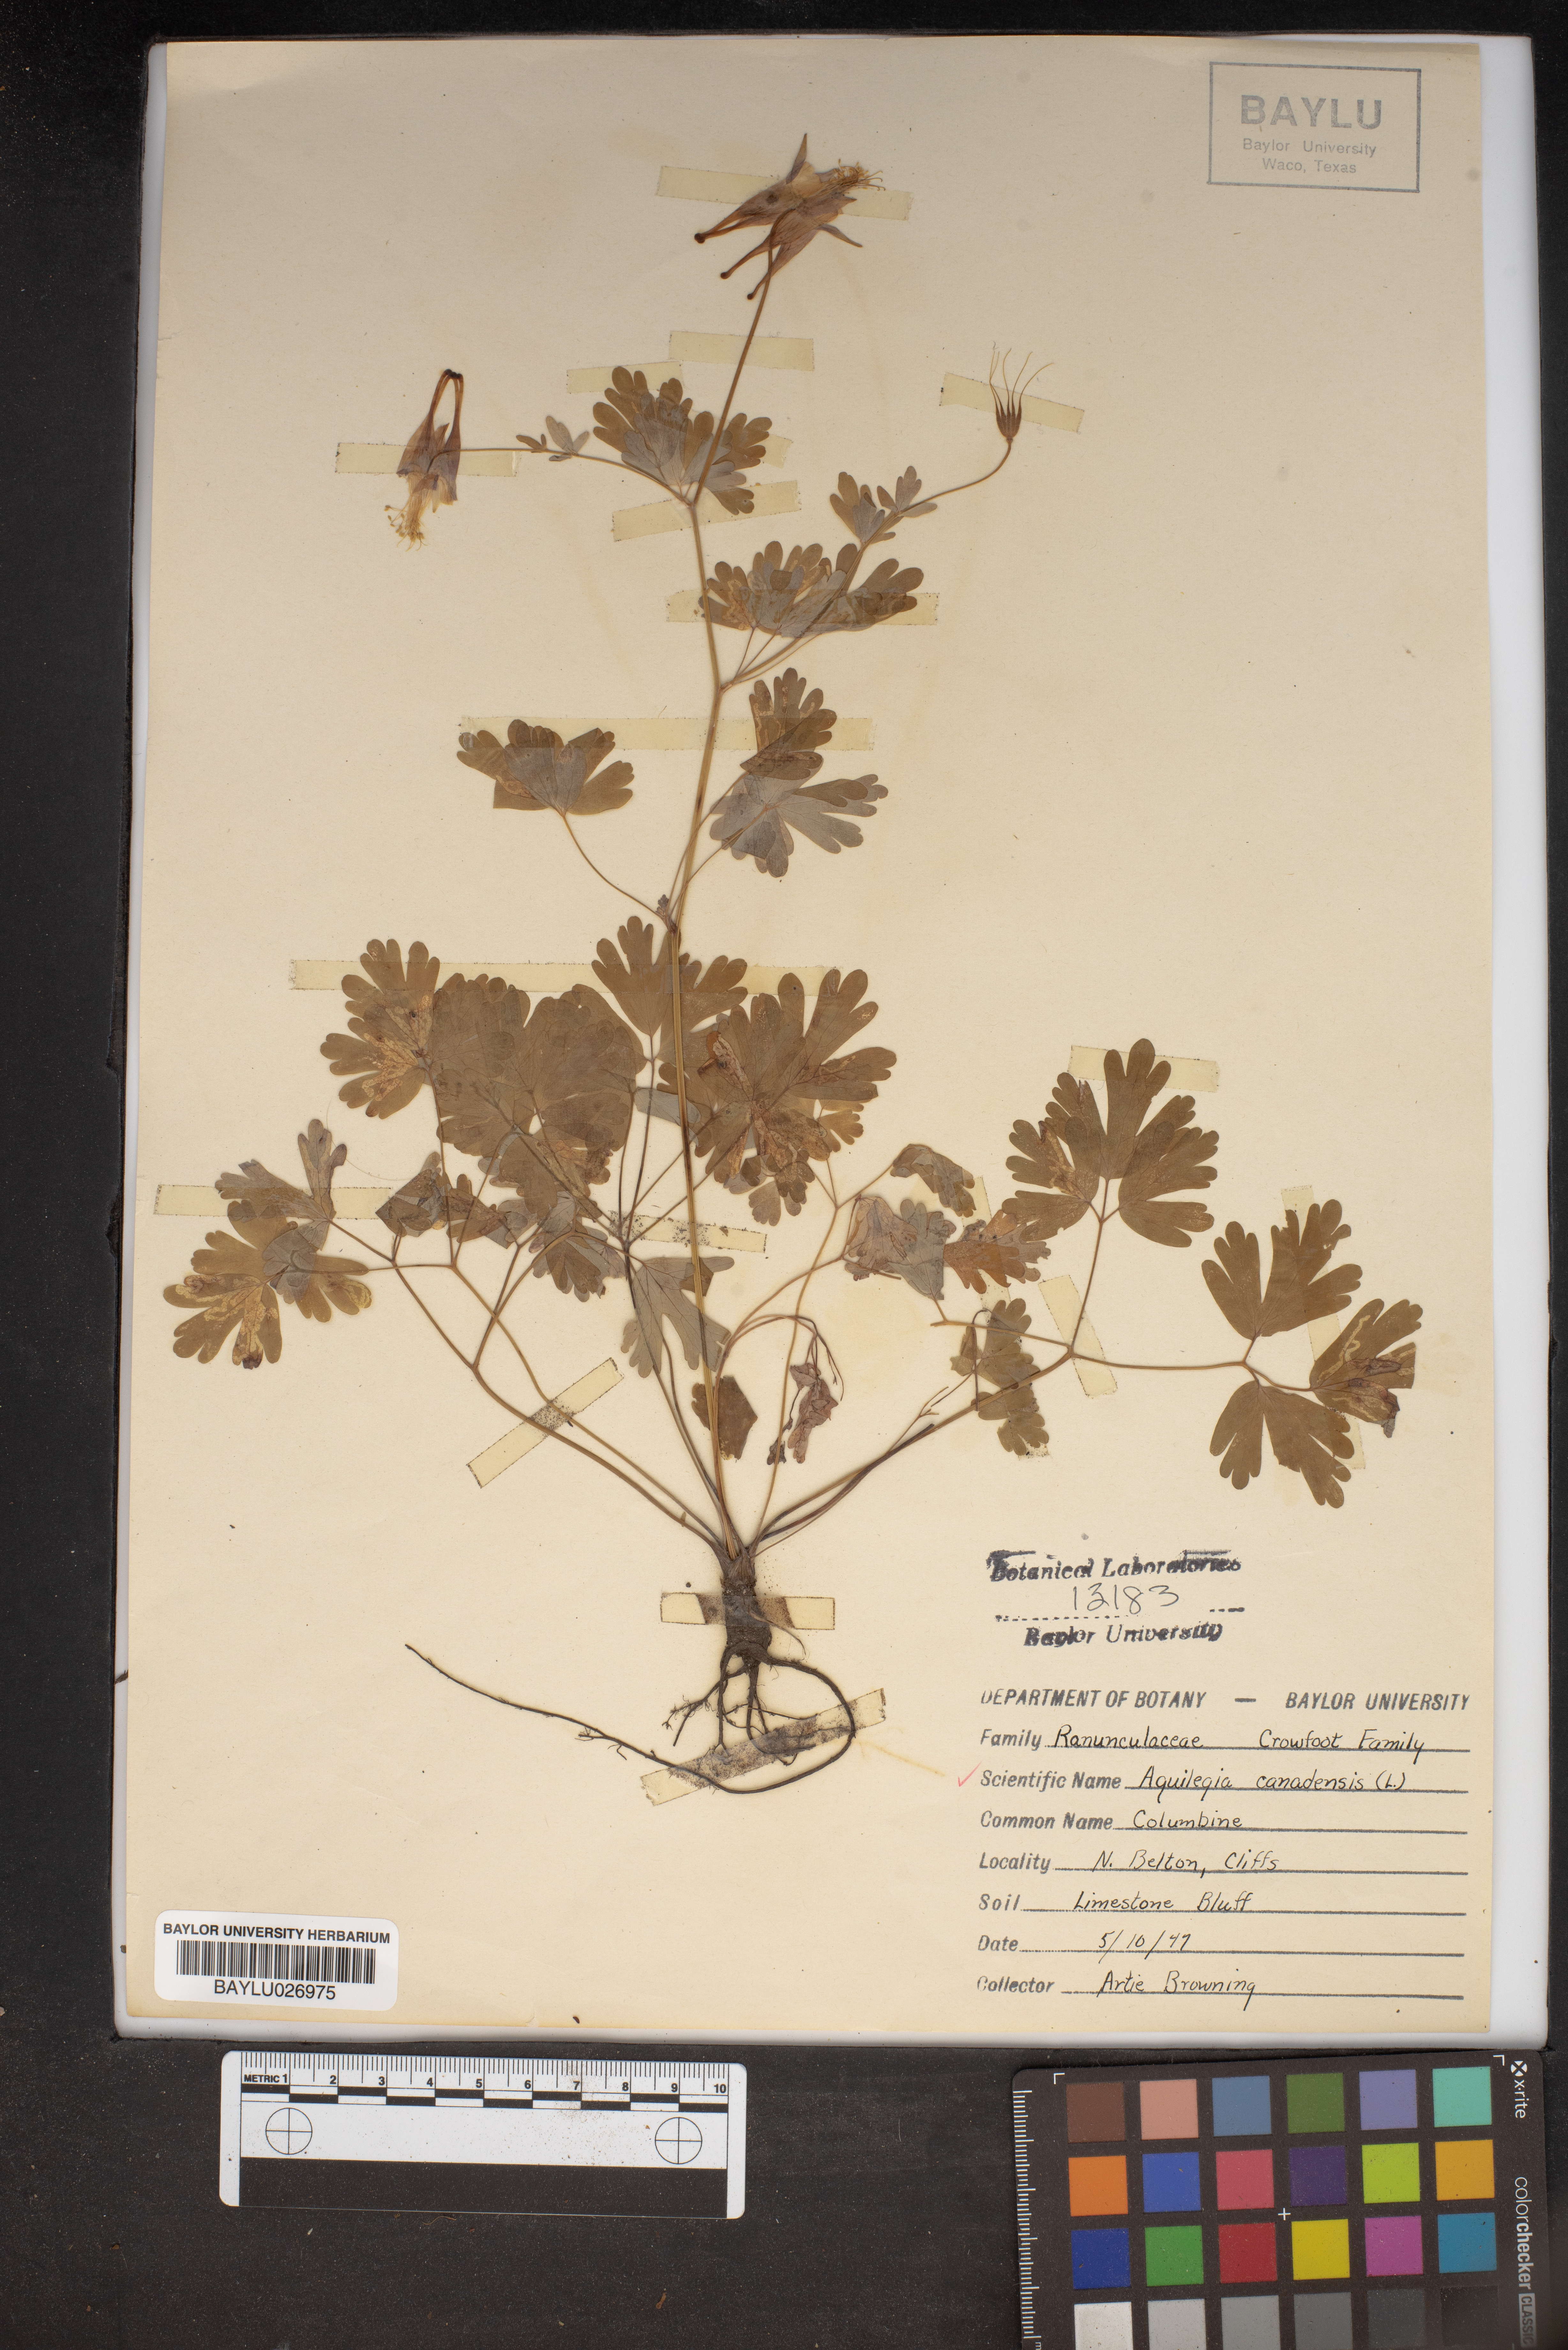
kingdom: Plantae
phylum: Tracheophyta
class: Magnoliopsida
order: Ranunculales
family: Ranunculaceae
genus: Aquilegia
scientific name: Aquilegia canadensis
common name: American columbine
